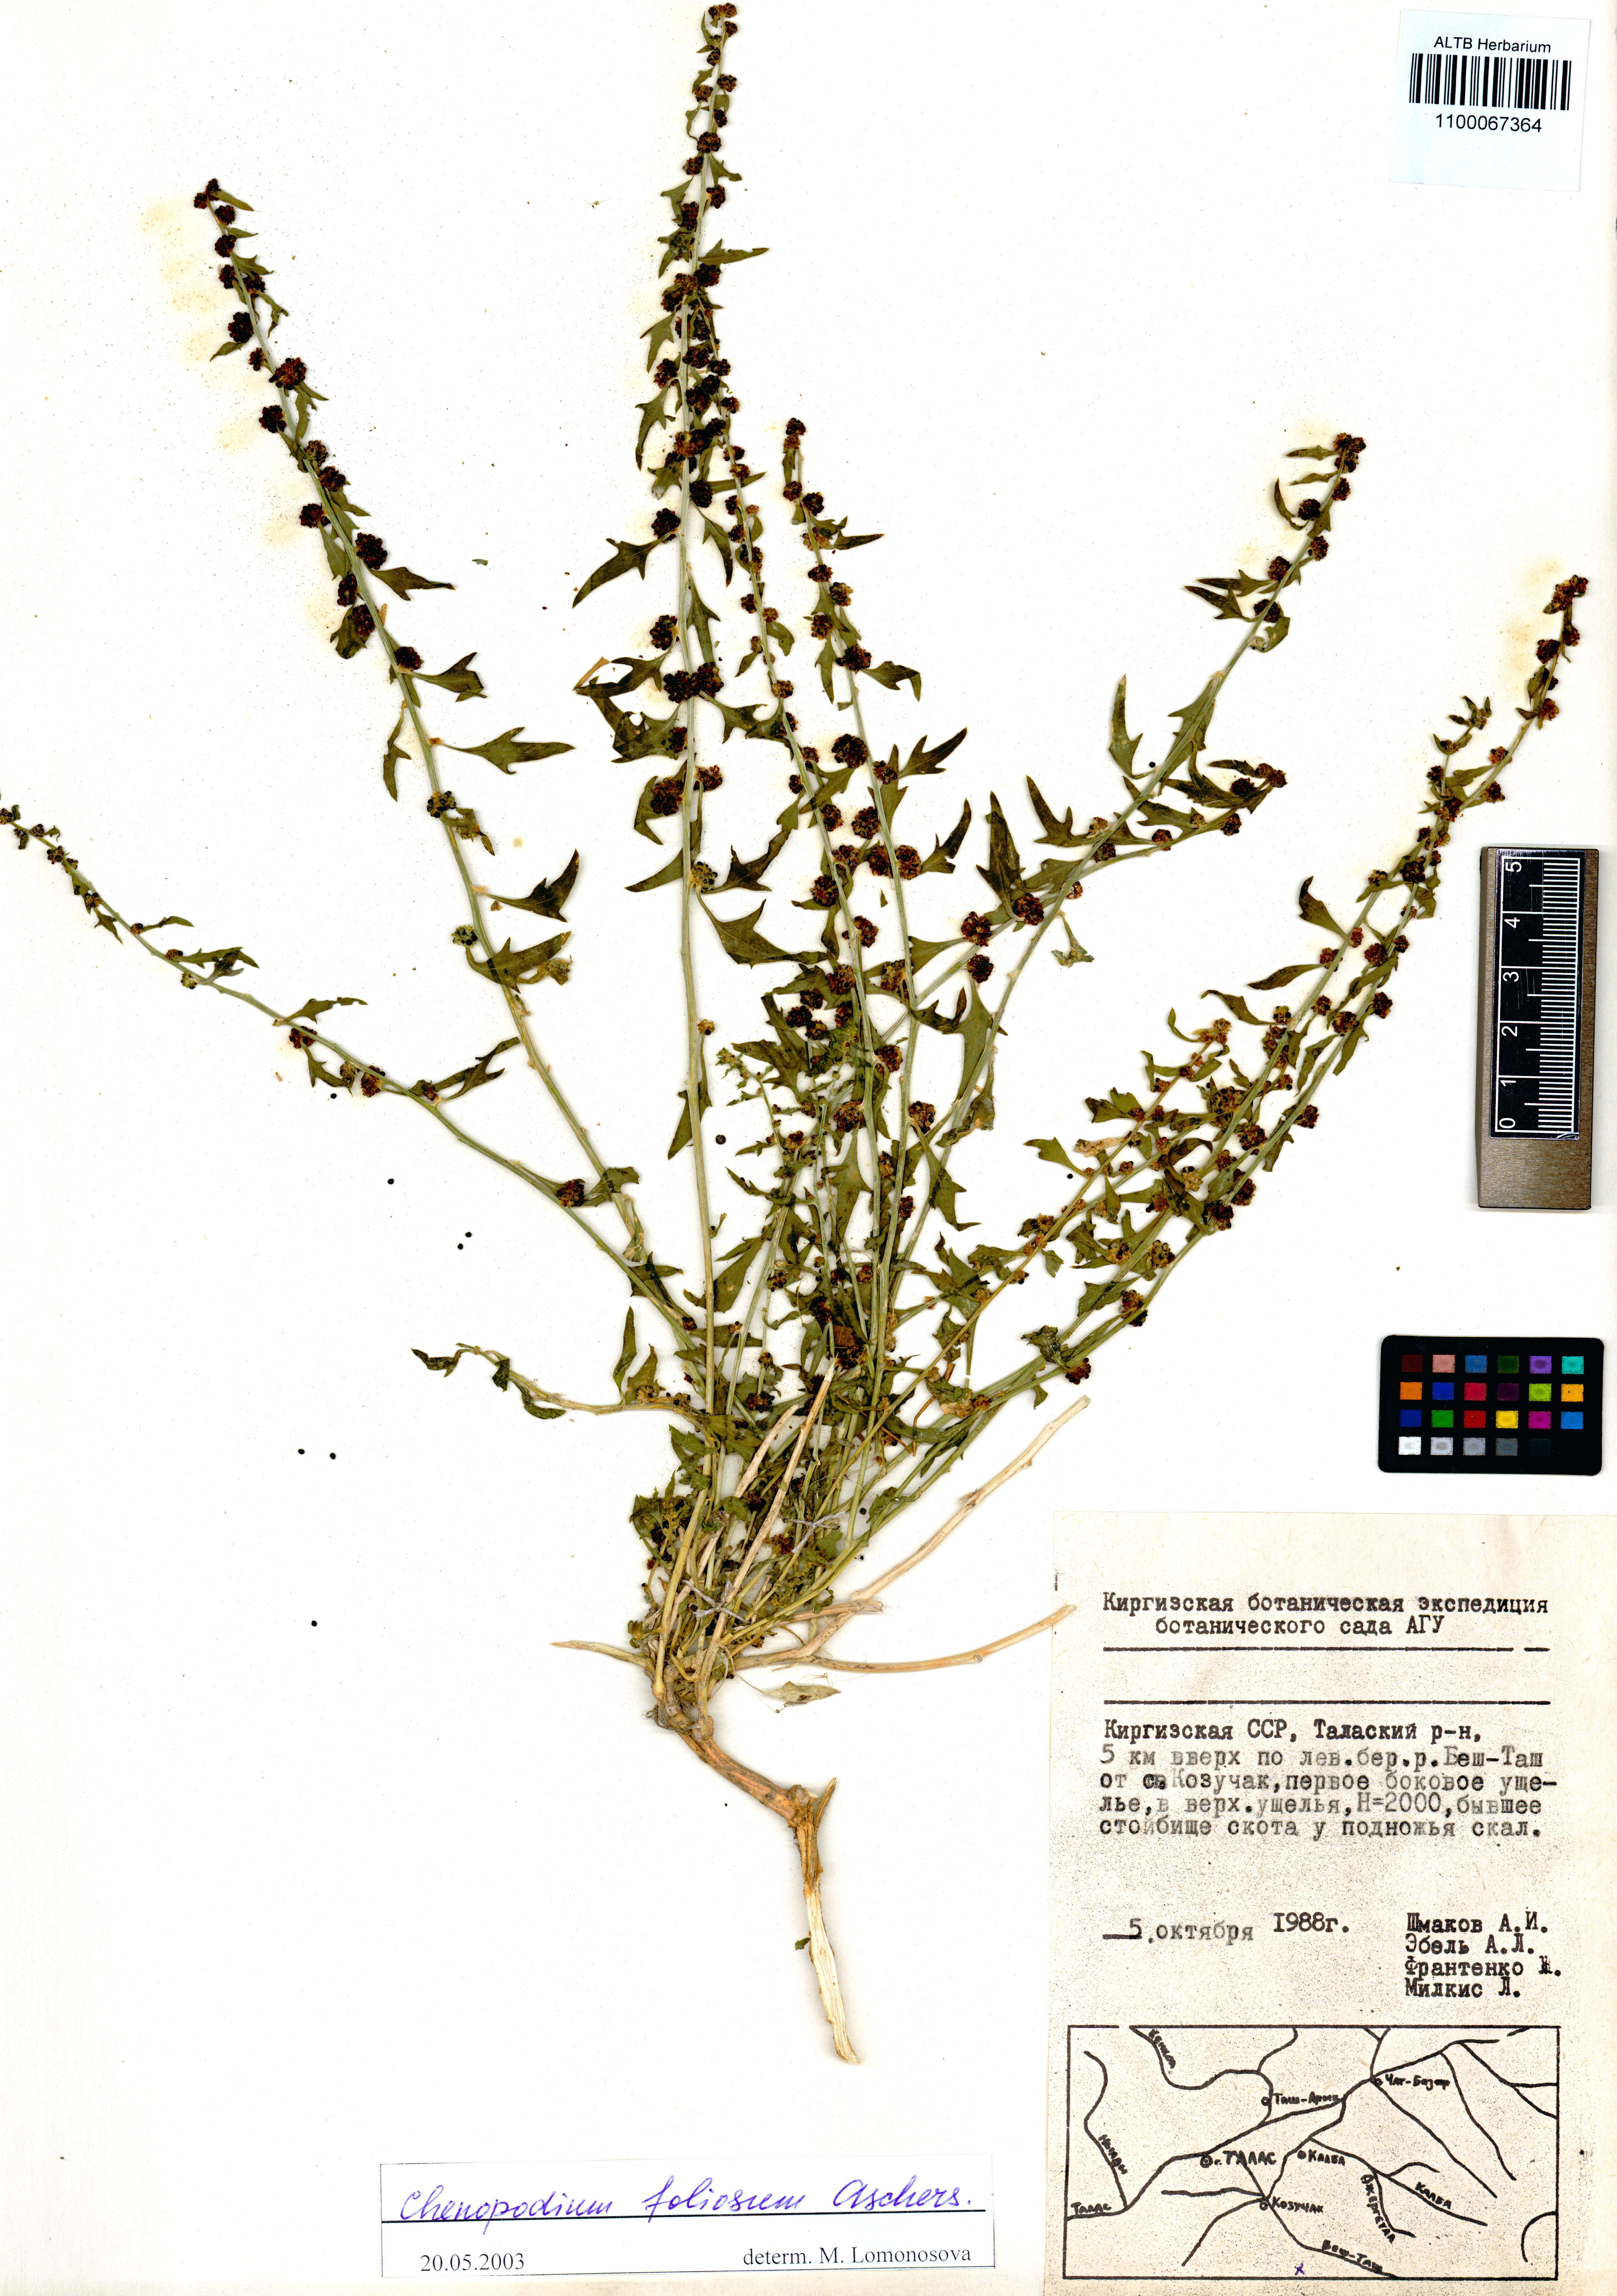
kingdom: Plantae
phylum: Tracheophyta
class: Magnoliopsida
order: Caryophyllales
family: Amaranthaceae
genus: Blitum
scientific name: Blitum virgatum
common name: Strawberry goosefoot
